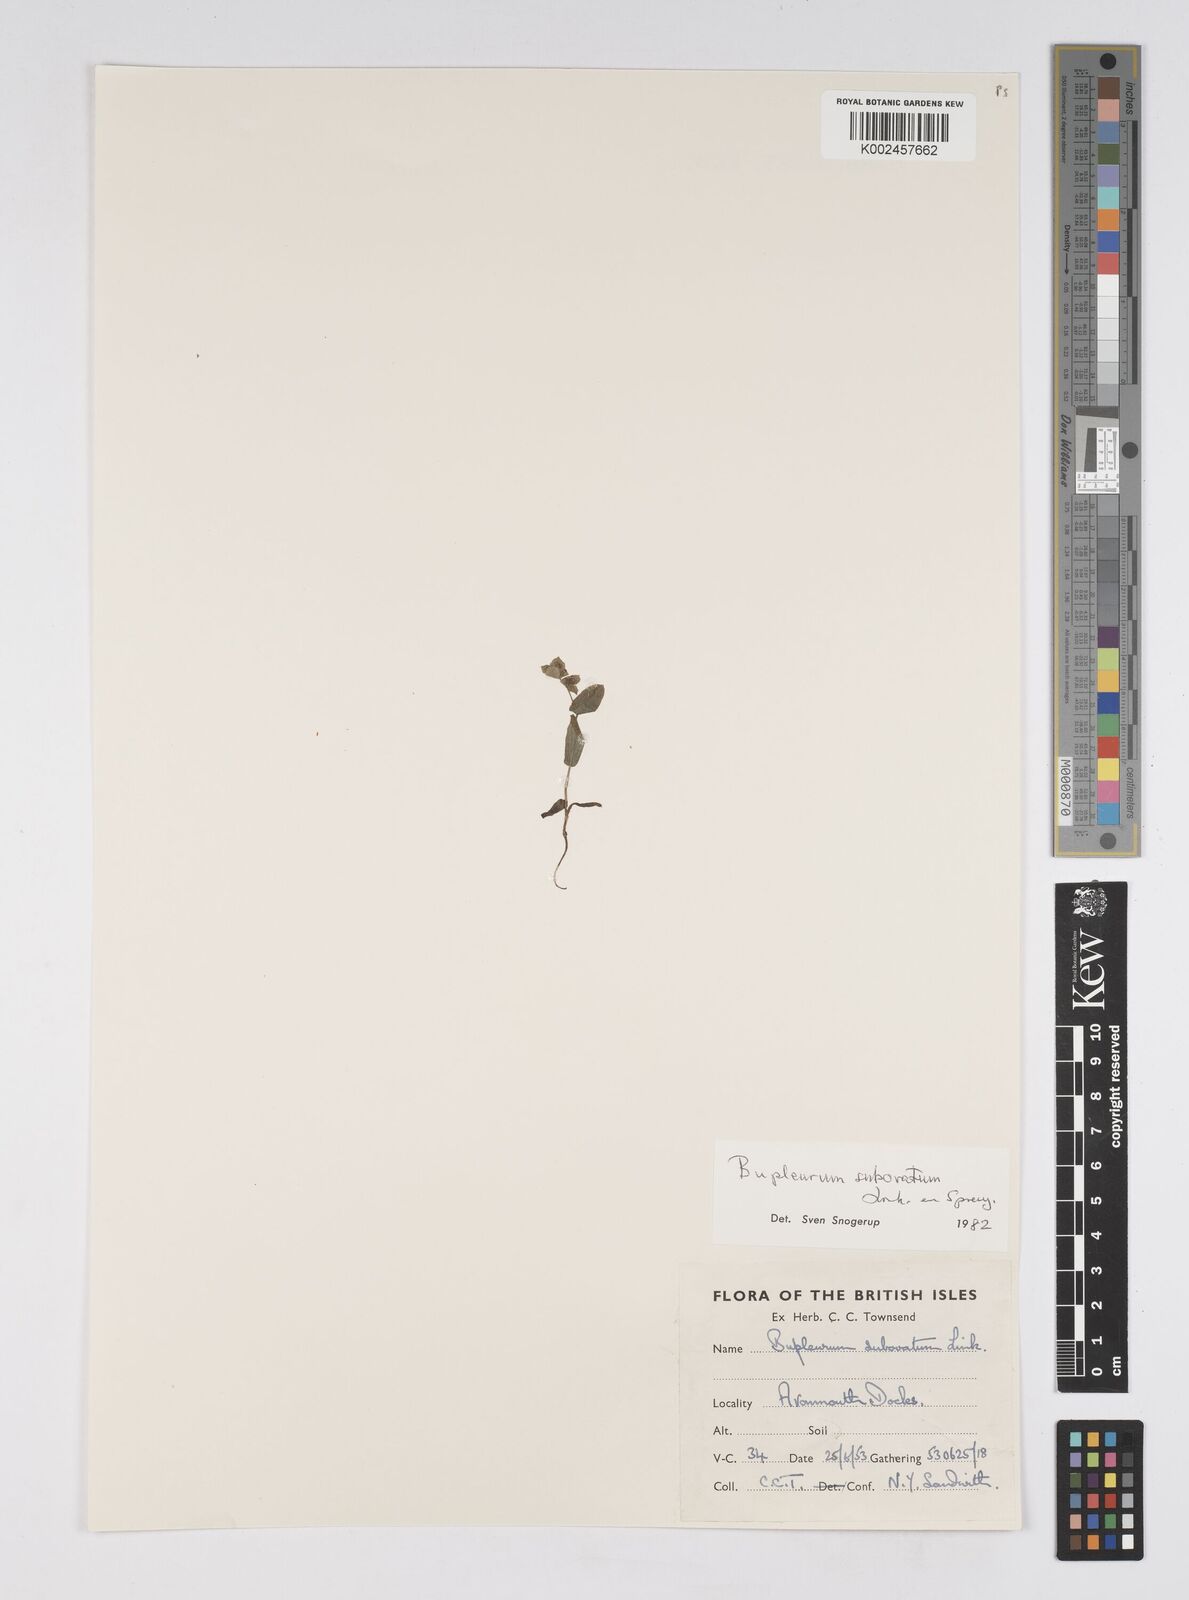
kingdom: Plantae
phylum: Tracheophyta
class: Magnoliopsida
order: Apiales
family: Apiaceae
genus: Bupleurum
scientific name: Bupleurum subovatum
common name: False thorow-wax
